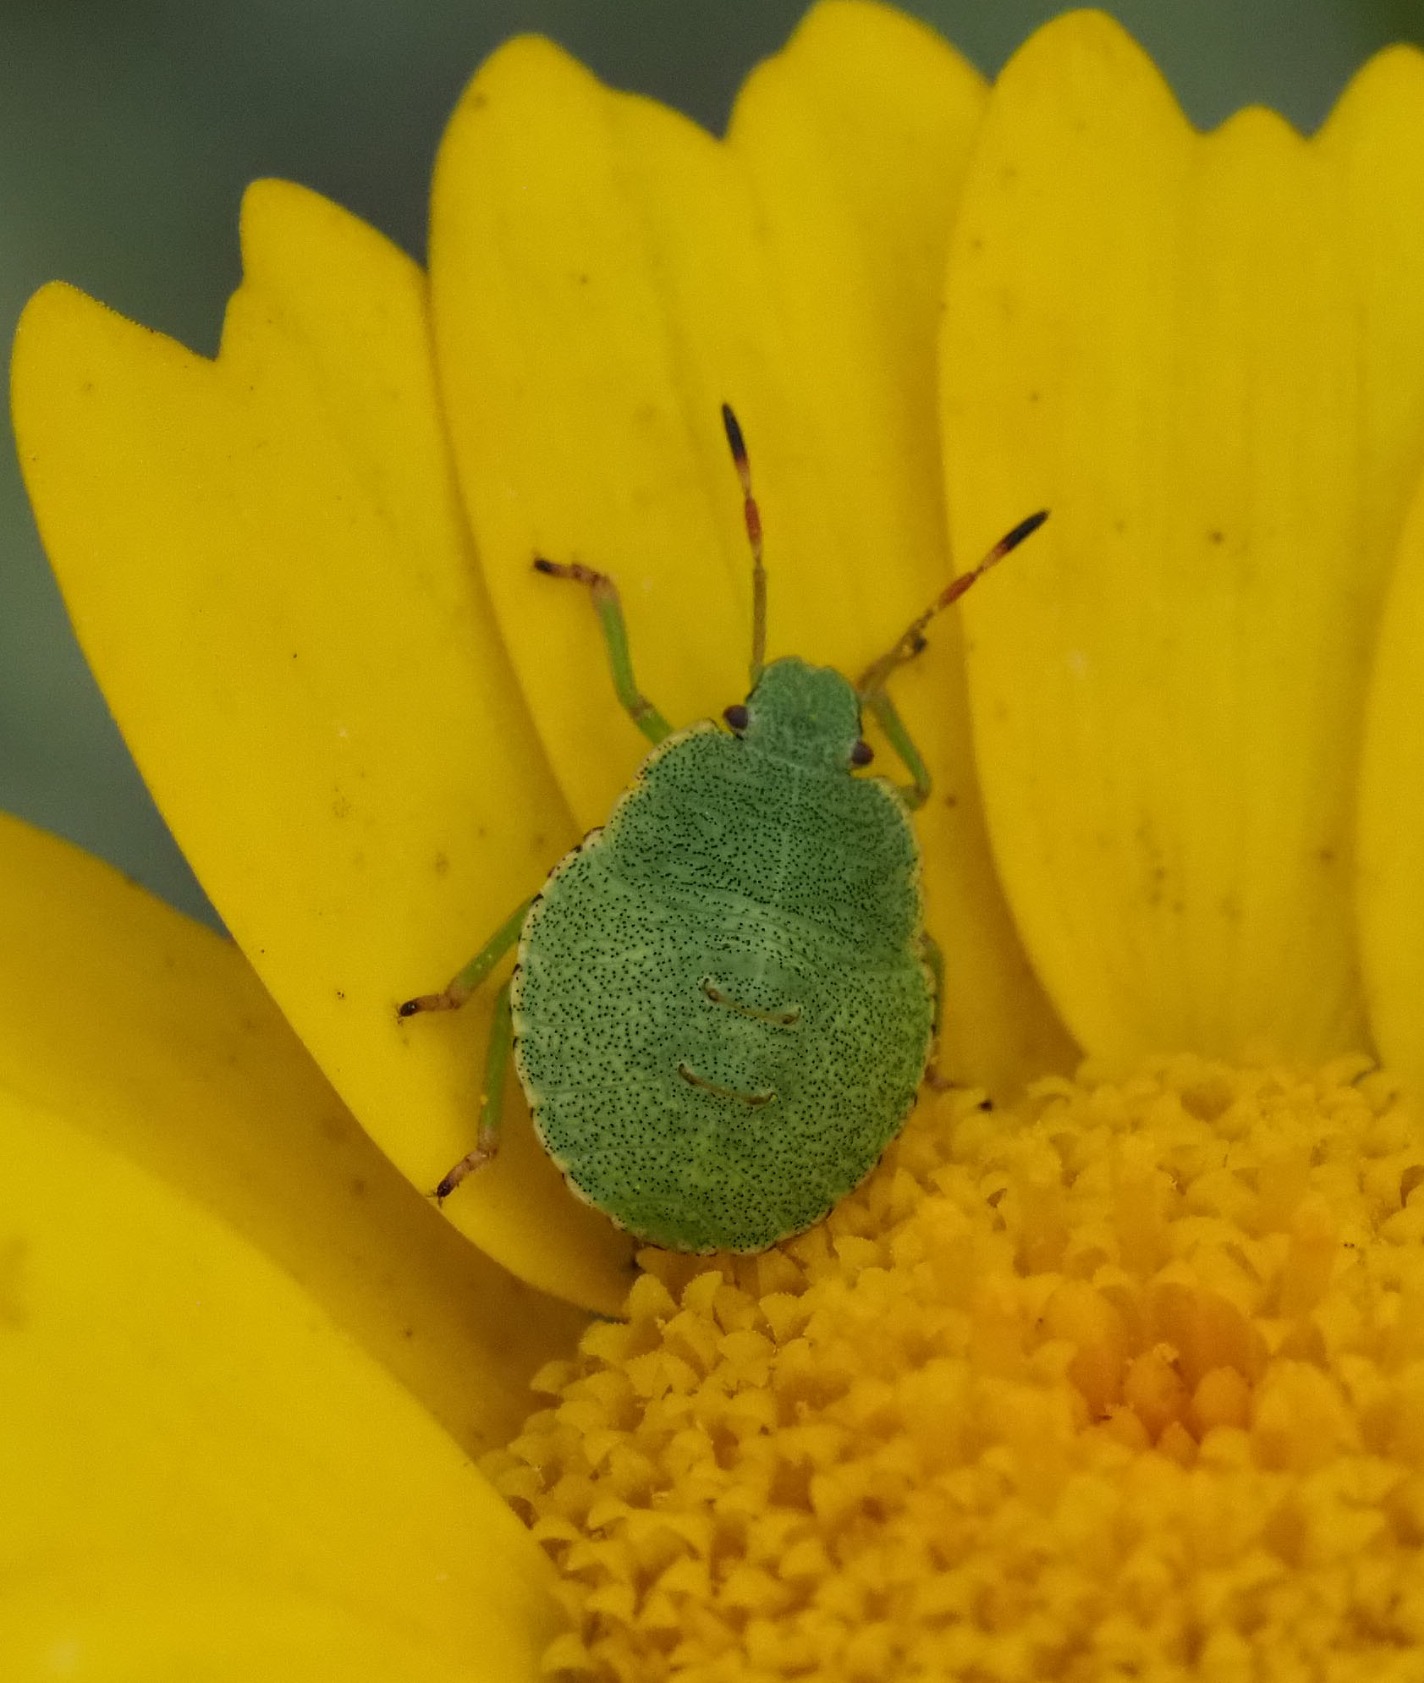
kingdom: Animalia
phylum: Arthropoda
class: Insecta
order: Hemiptera
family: Pentatomidae
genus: Palomena
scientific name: Palomena prasina
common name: Grøn bredtæge
